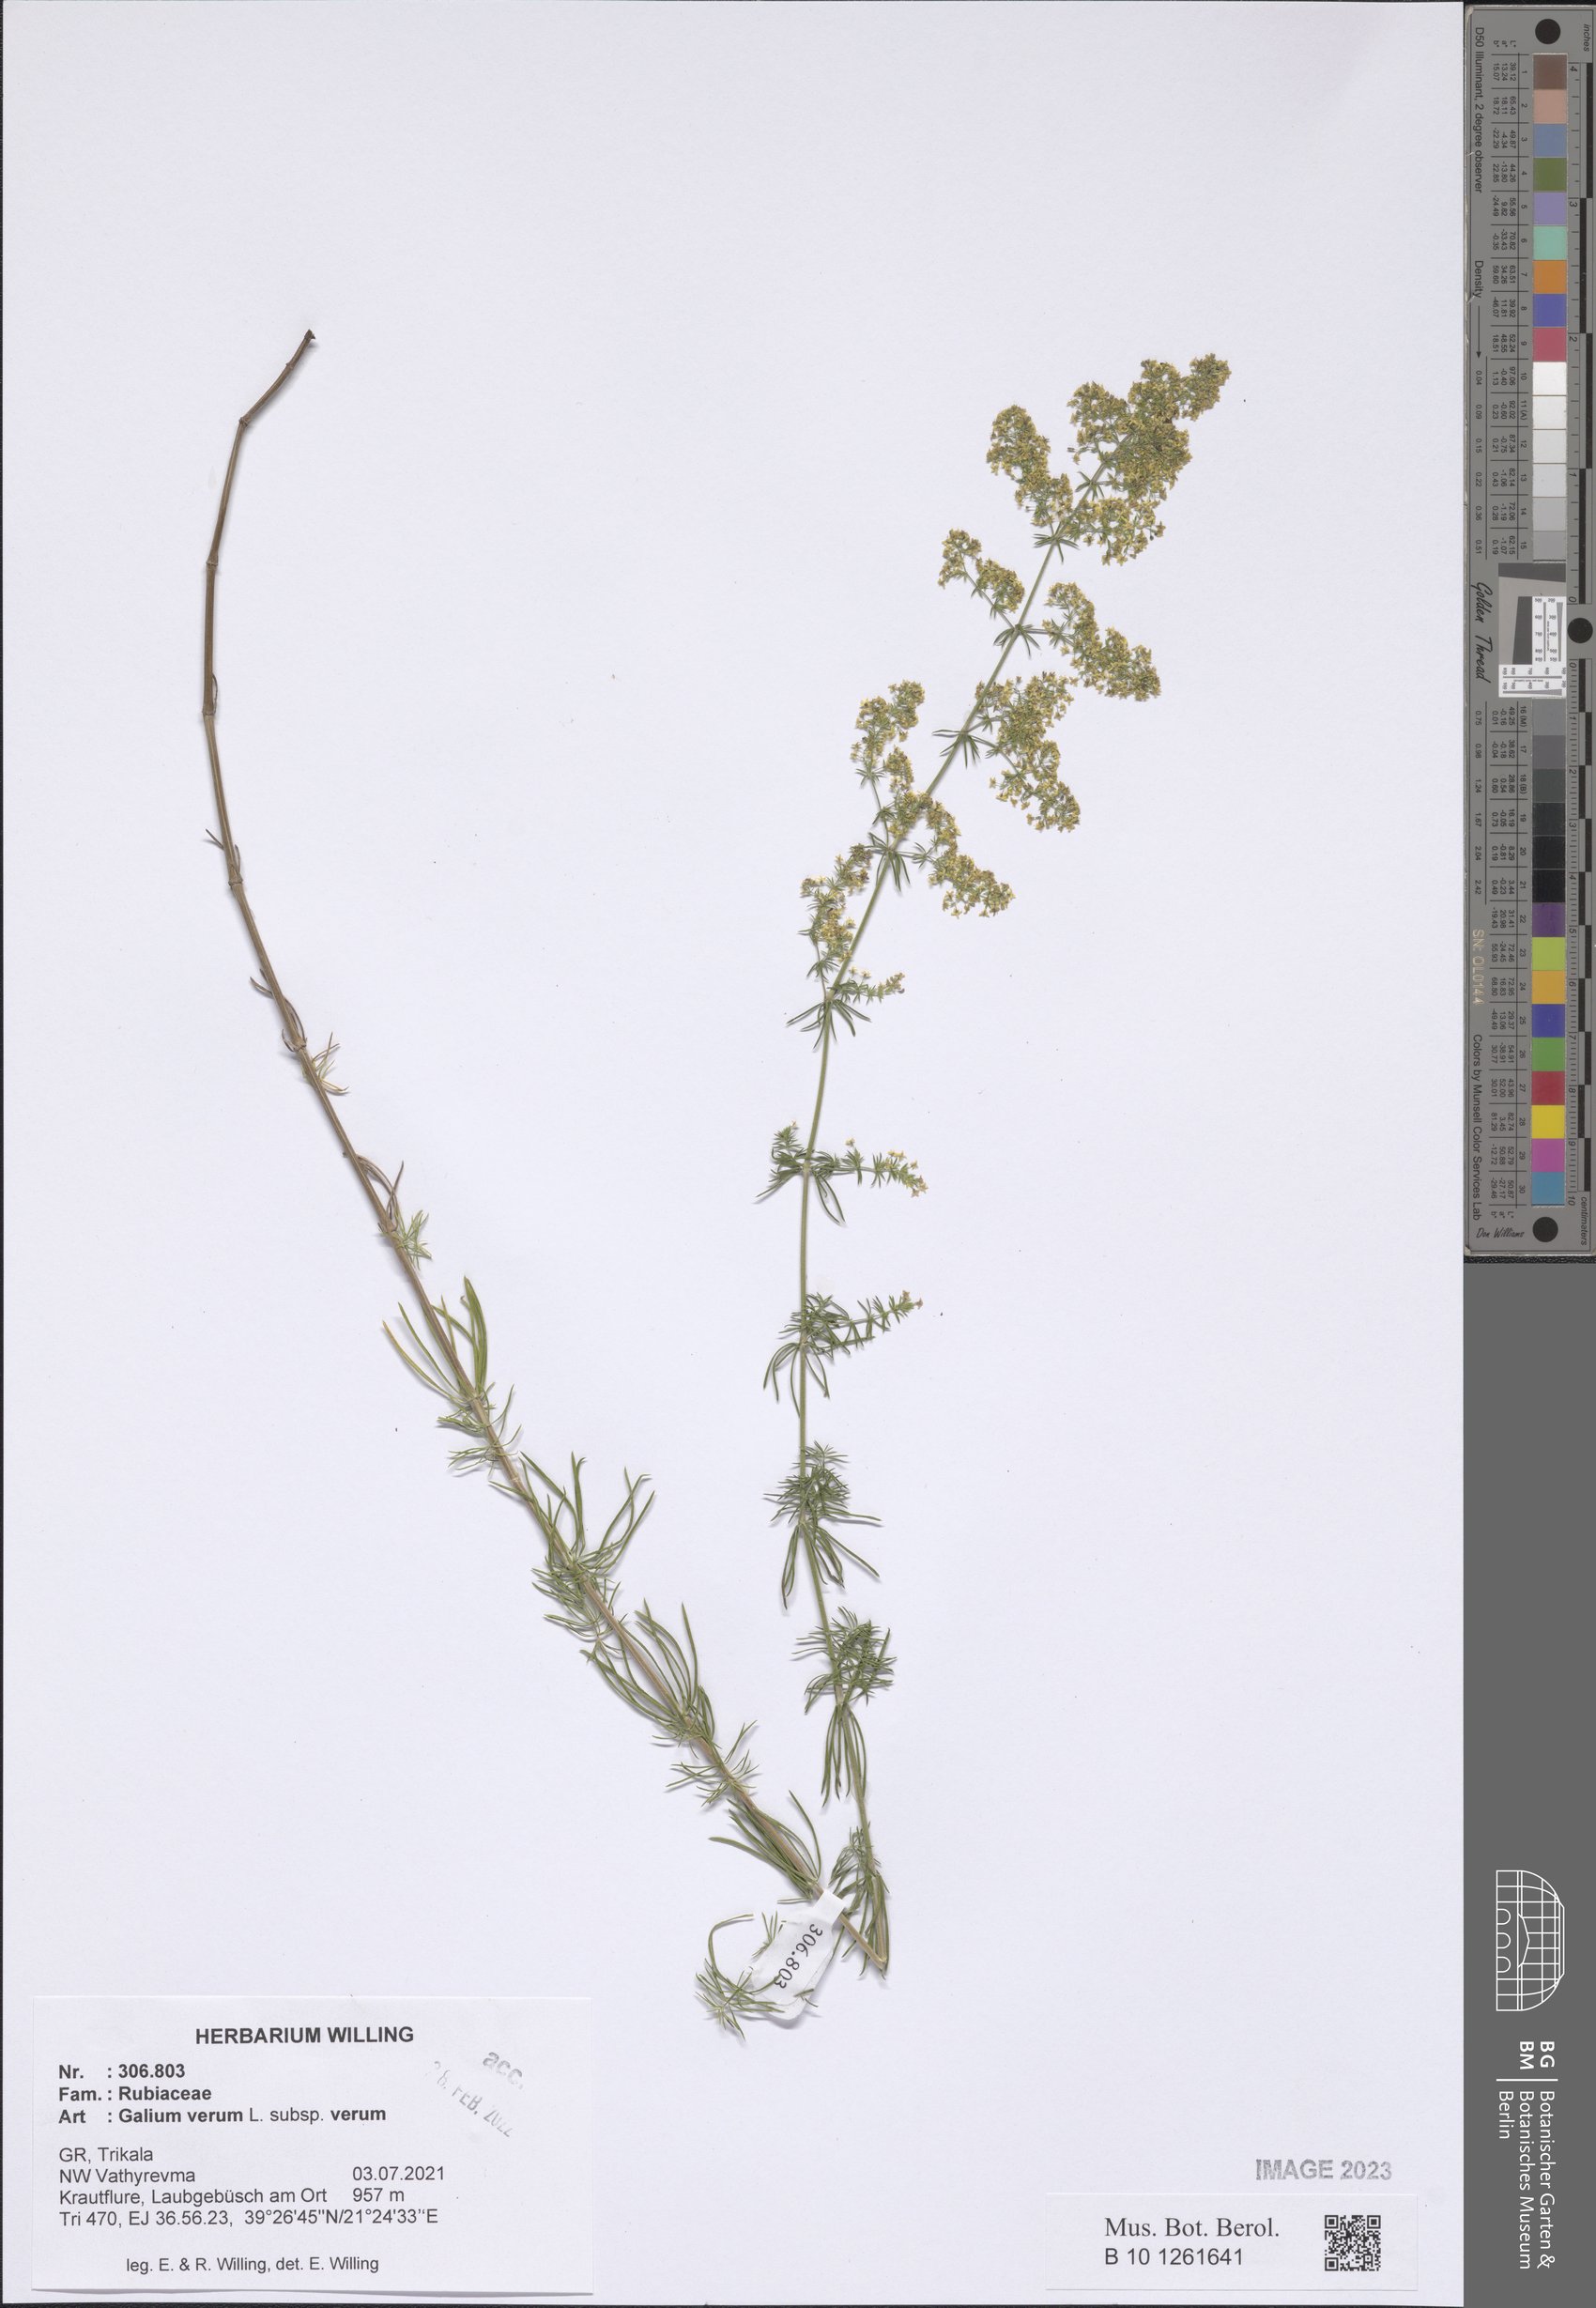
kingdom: Plantae
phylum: Tracheophyta
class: Magnoliopsida
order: Gentianales
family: Rubiaceae
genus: Galium
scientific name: Galium verum
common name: Lady's bedstraw
